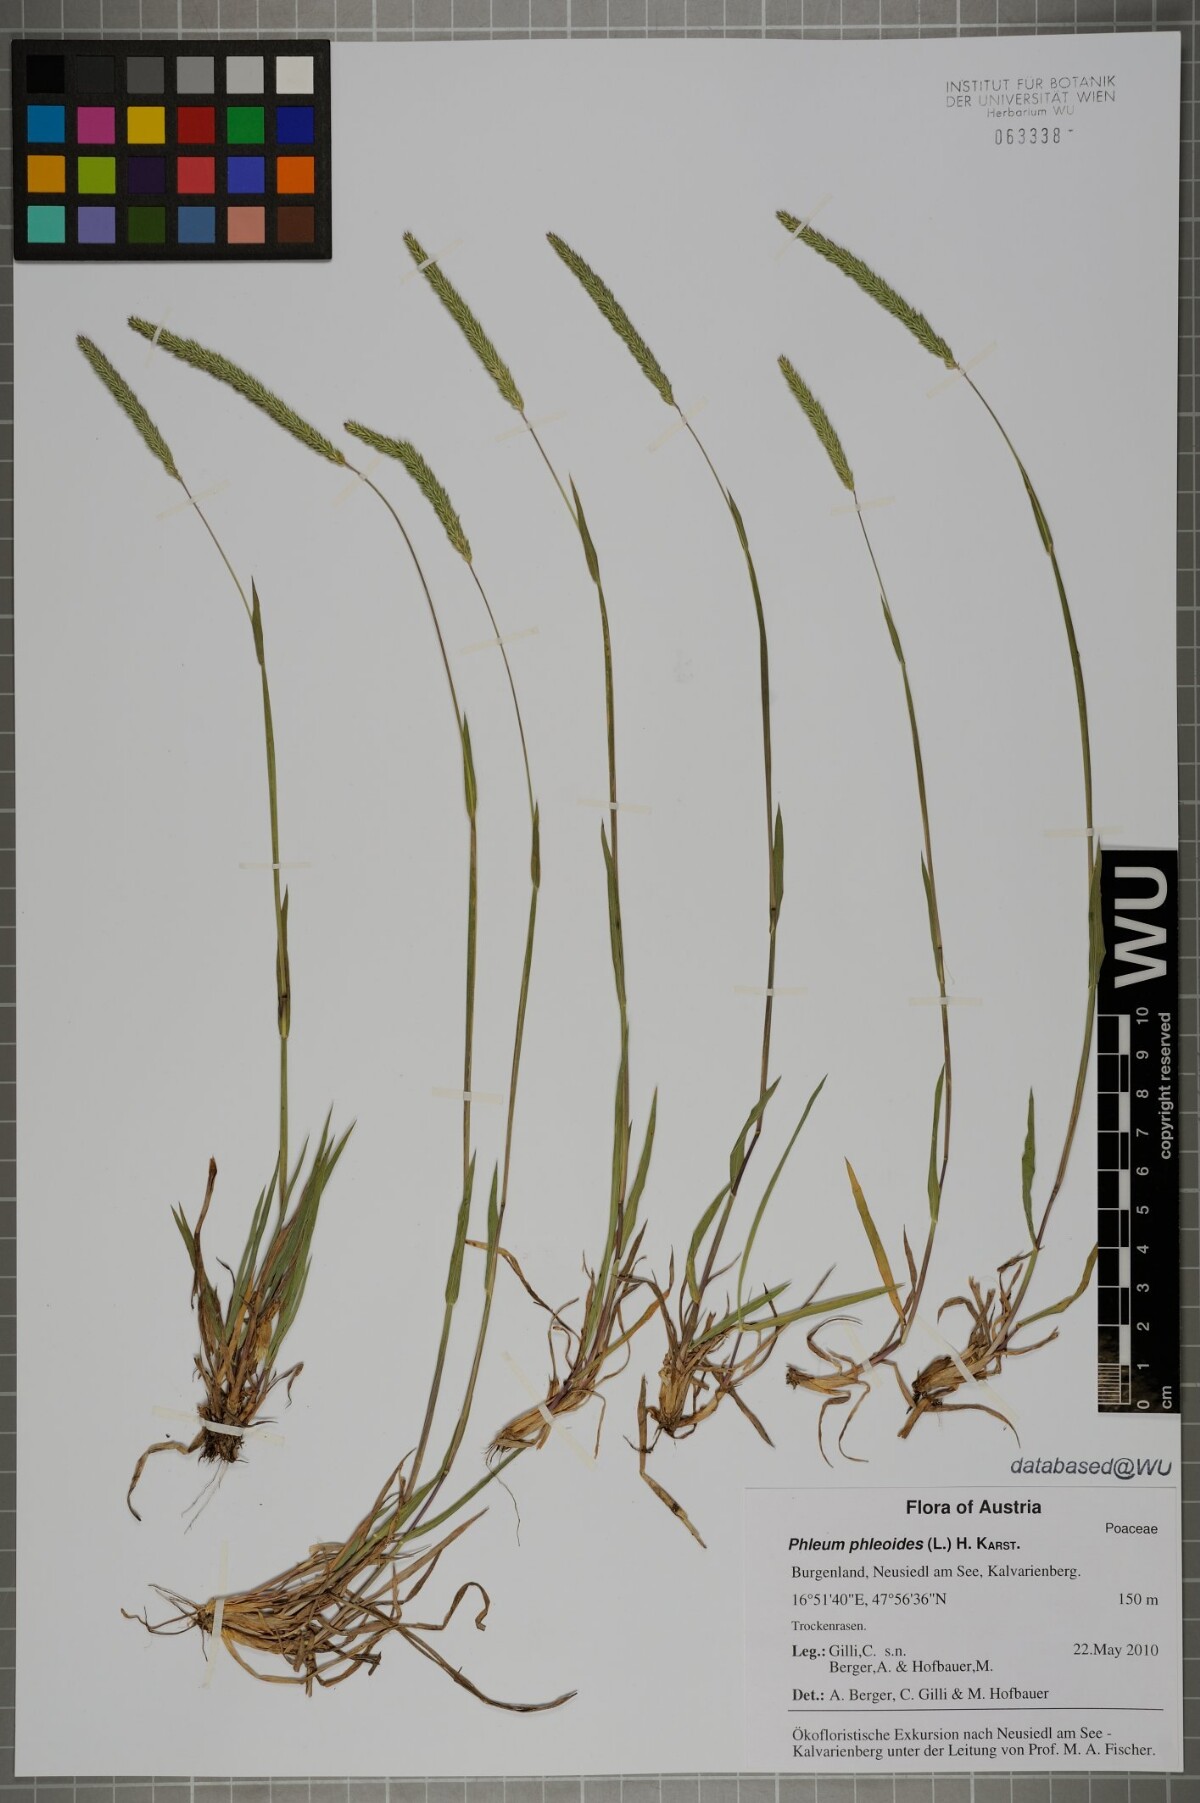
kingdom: Plantae
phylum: Tracheophyta
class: Liliopsida
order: Poales
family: Poaceae
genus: Phleum
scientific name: Phleum phleoides
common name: Purple-stem cat's-tail
